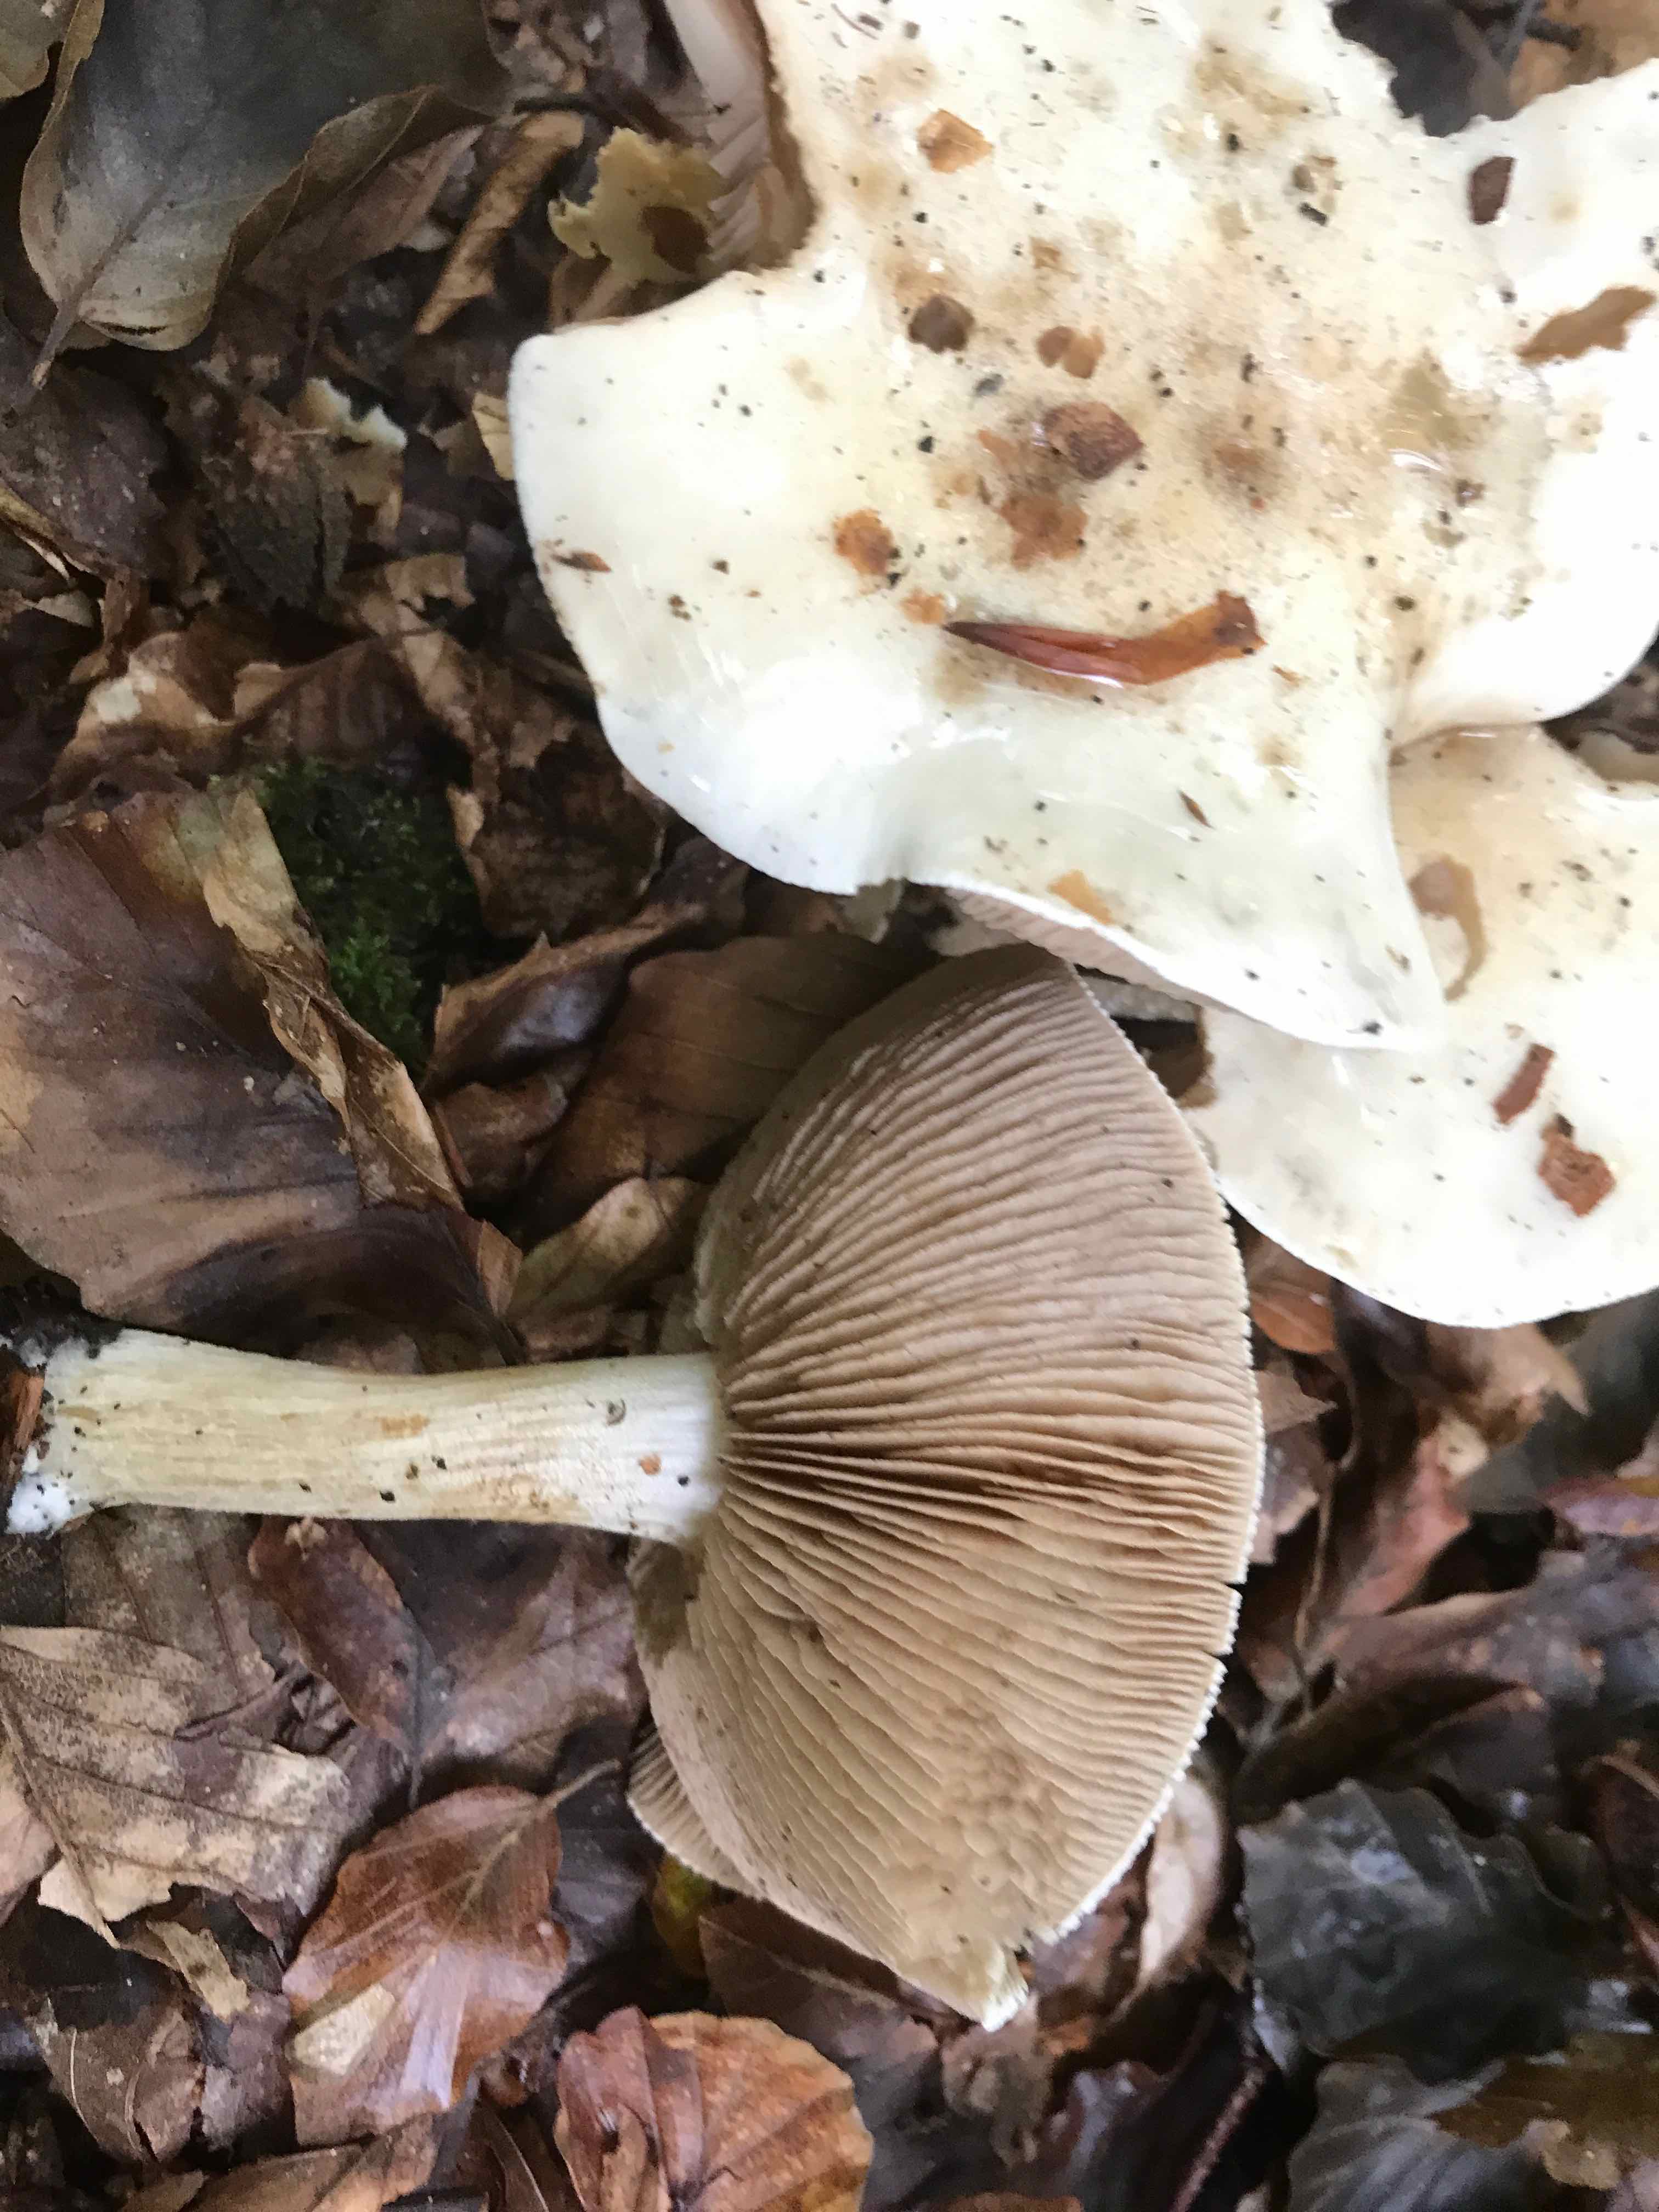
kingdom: Fungi
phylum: Basidiomycota
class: Agaricomycetes
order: Agaricales
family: Hymenogastraceae
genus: Hebeloma
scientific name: Hebeloma
